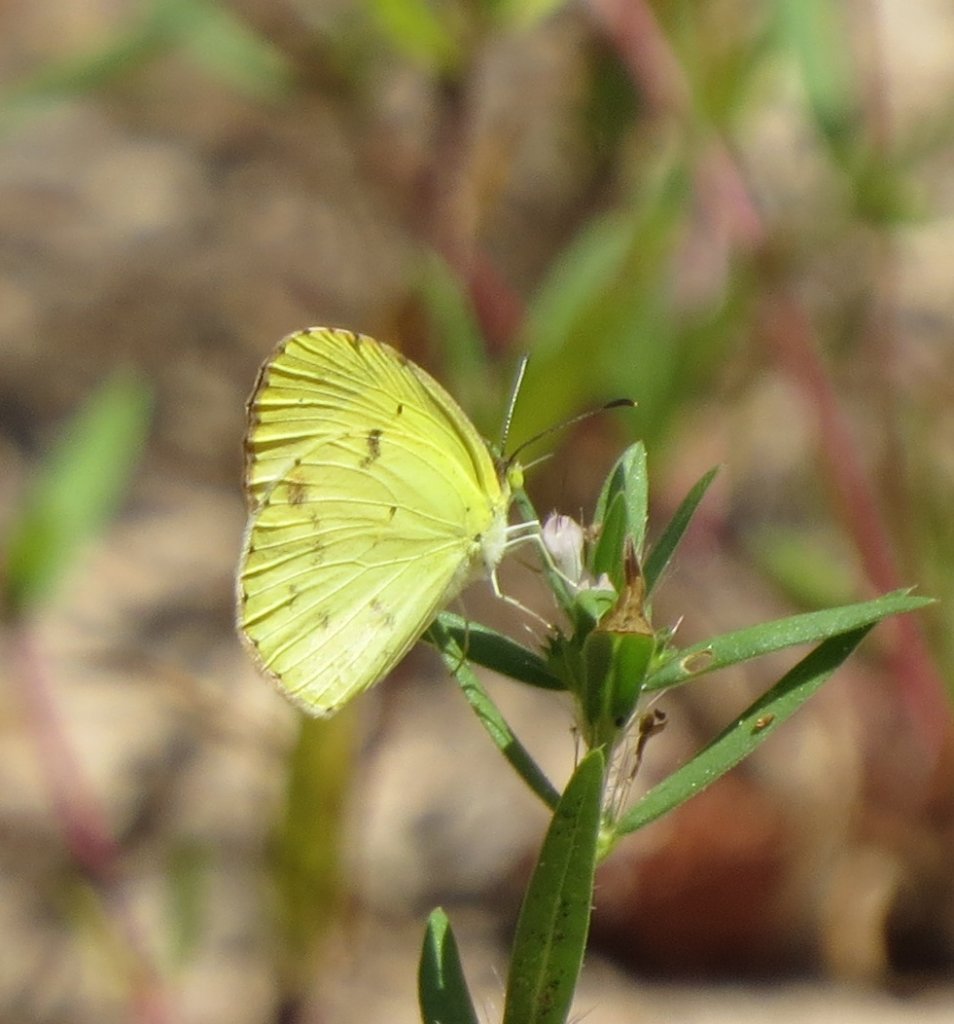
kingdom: Animalia
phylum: Arthropoda
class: Insecta
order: Lepidoptera
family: Pieridae
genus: Pyrisitia
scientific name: Pyrisitia lisa
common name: Little Yellow
